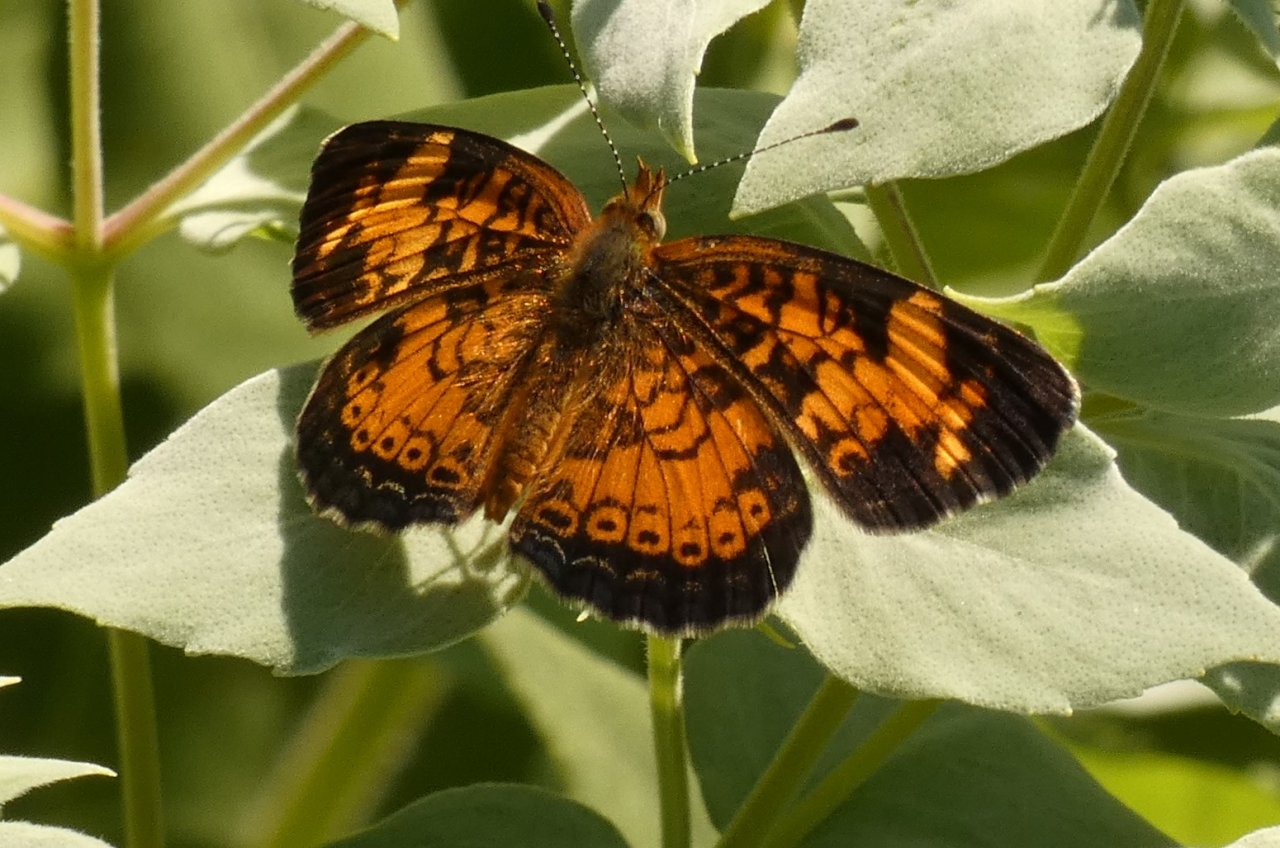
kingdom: Animalia
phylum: Arthropoda
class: Insecta
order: Lepidoptera
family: Nymphalidae
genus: Phyciodes
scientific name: Phyciodes tharos
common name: Pearl Crescent
